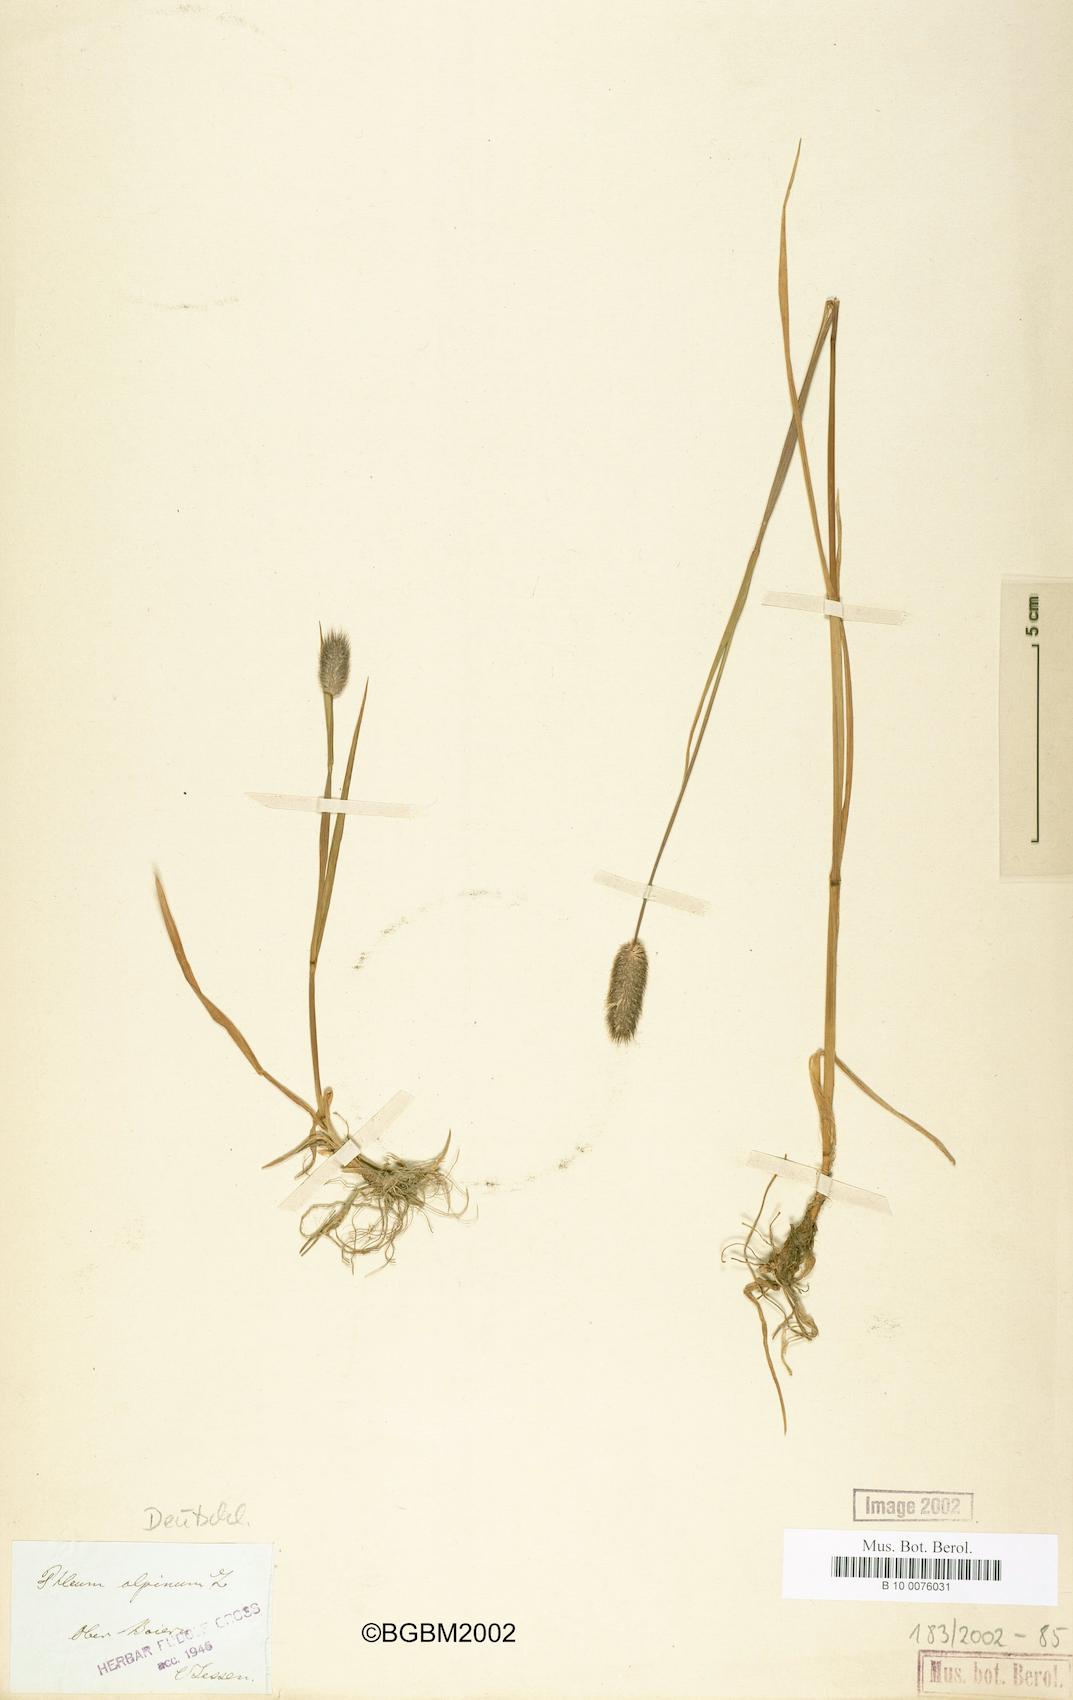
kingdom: Plantae
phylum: Tracheophyta
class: Liliopsida
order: Poales
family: Poaceae
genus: Phleum
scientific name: Phleum alpinum
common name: Alpine cat's-tail
